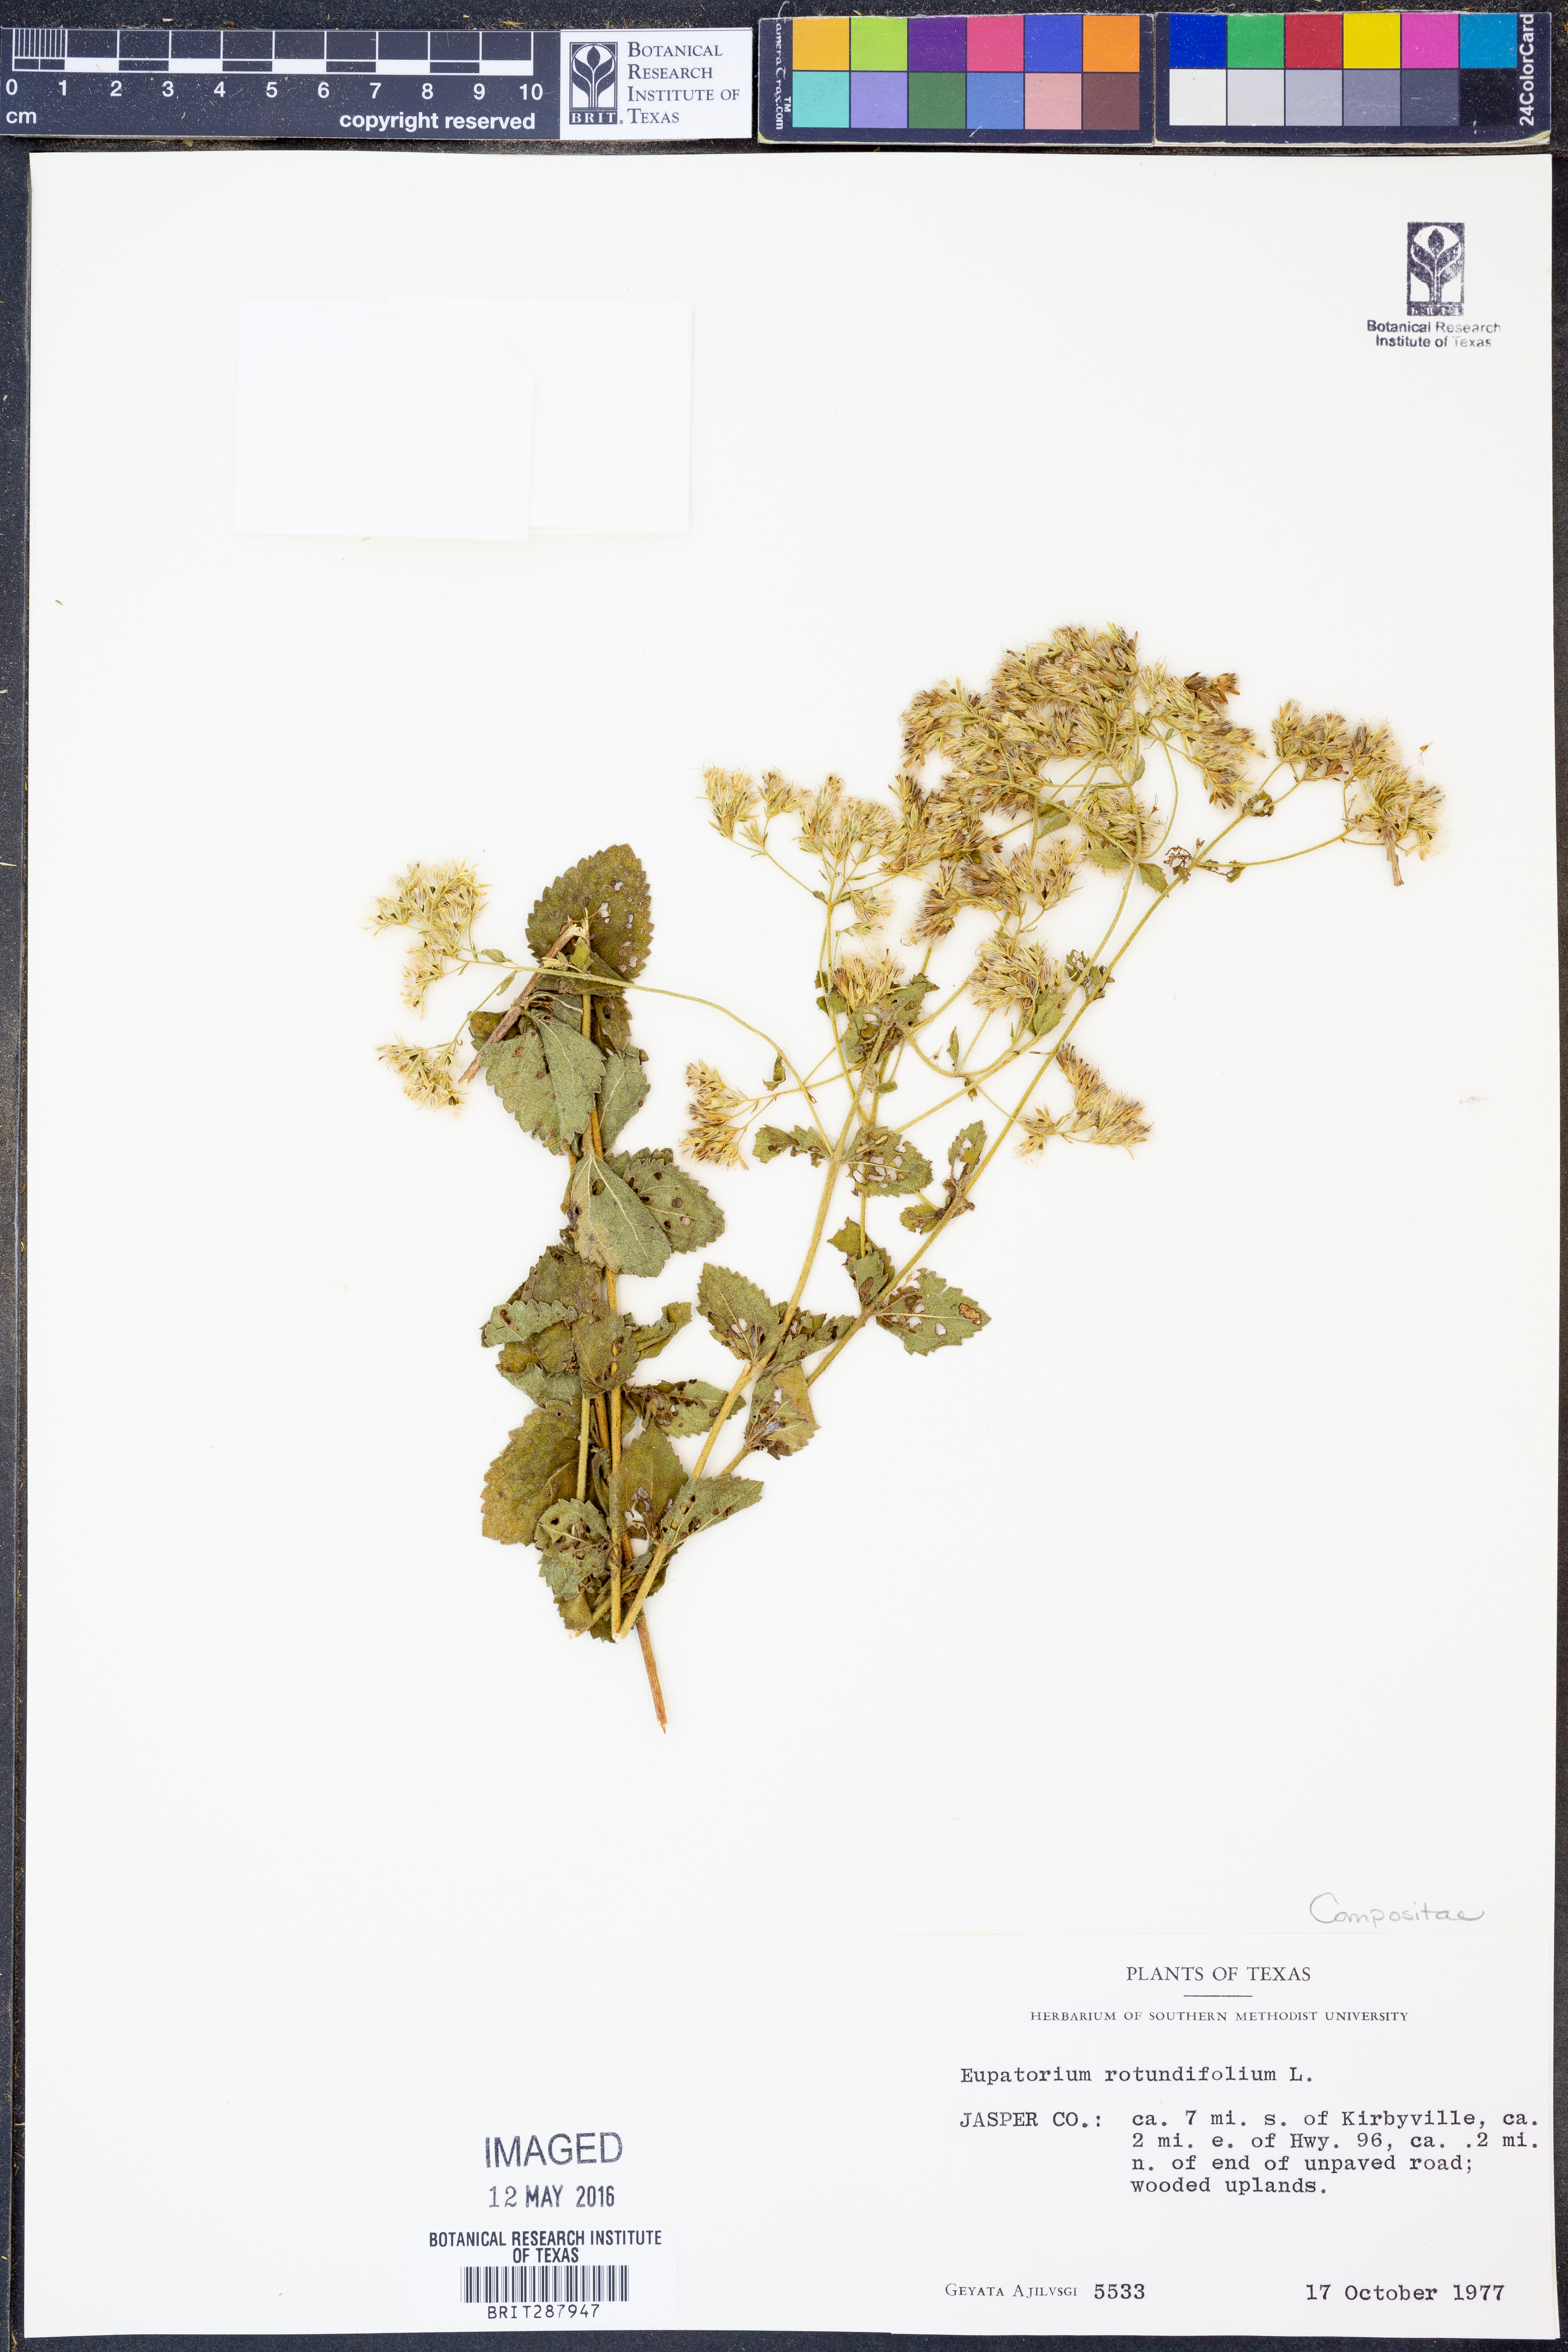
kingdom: Plantae
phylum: Tracheophyta
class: Magnoliopsida
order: Asterales
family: Asteraceae
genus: Eupatorium
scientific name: Eupatorium rotundifolium
